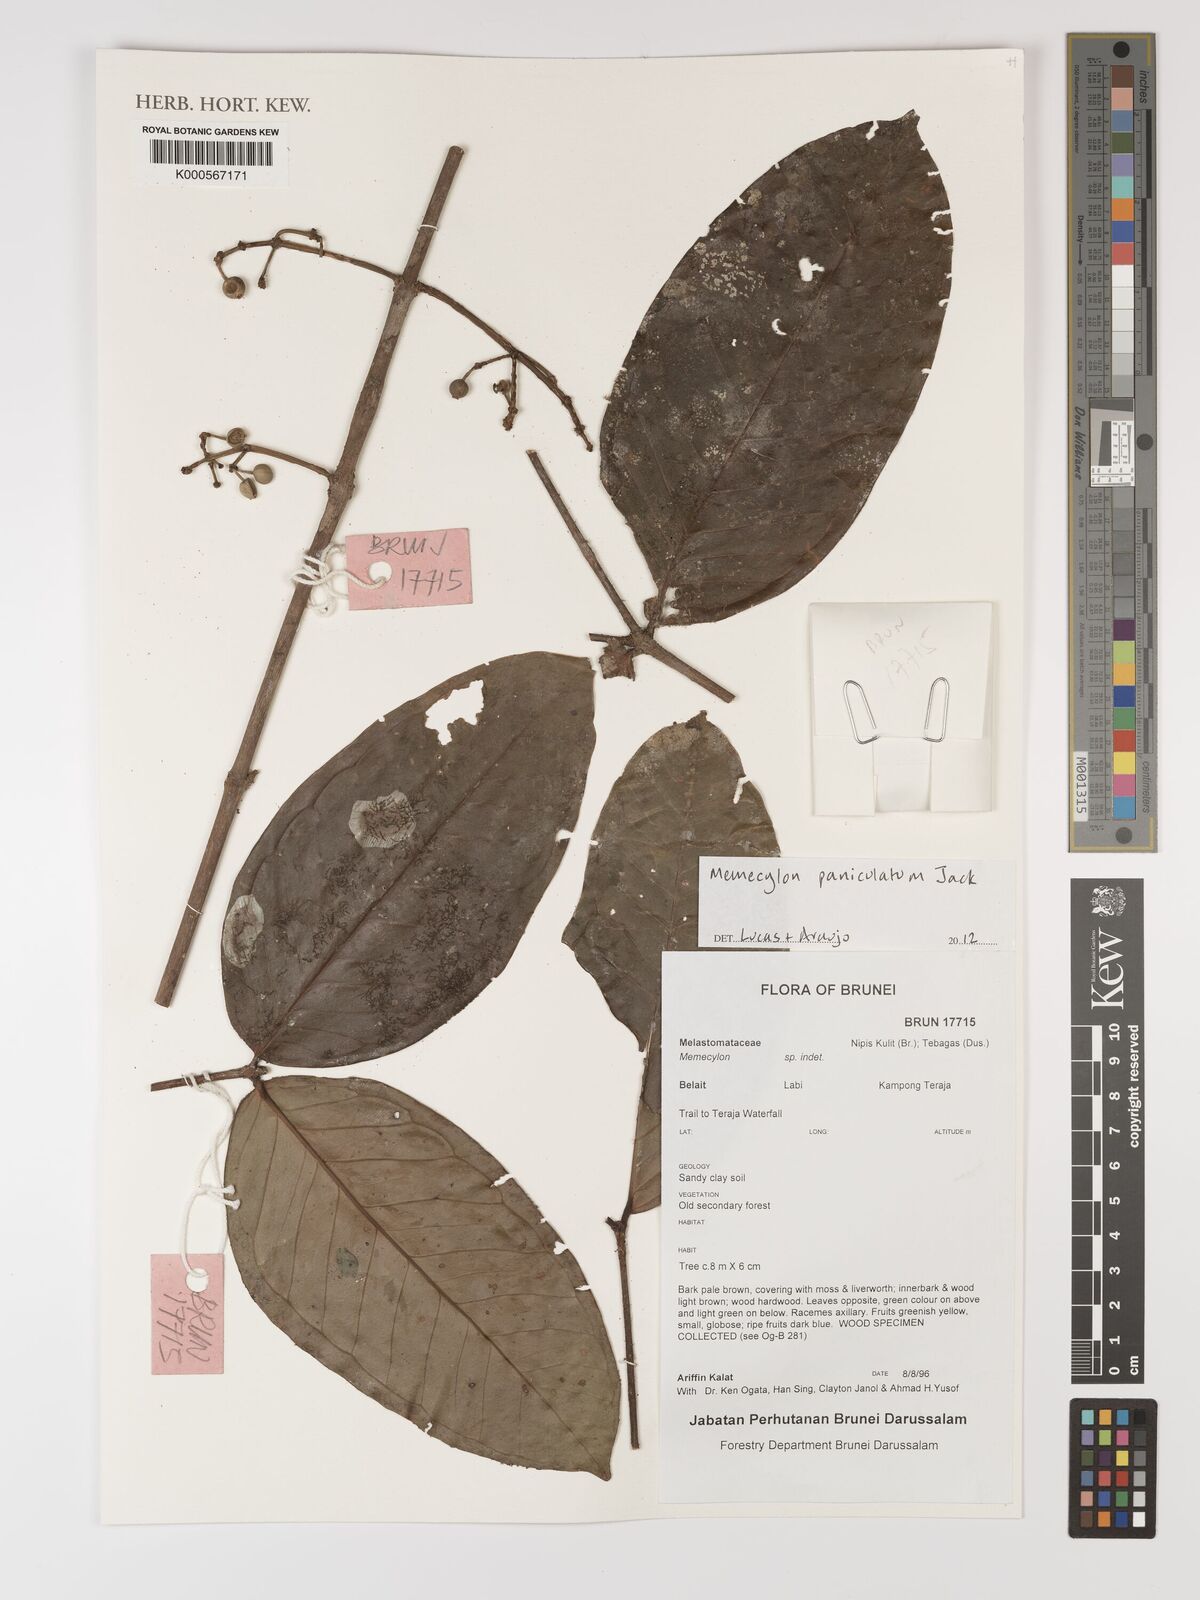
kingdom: Plantae
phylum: Tracheophyta
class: Magnoliopsida
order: Myrtales
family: Melastomataceae
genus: Memecylon
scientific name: Memecylon paniculatum
